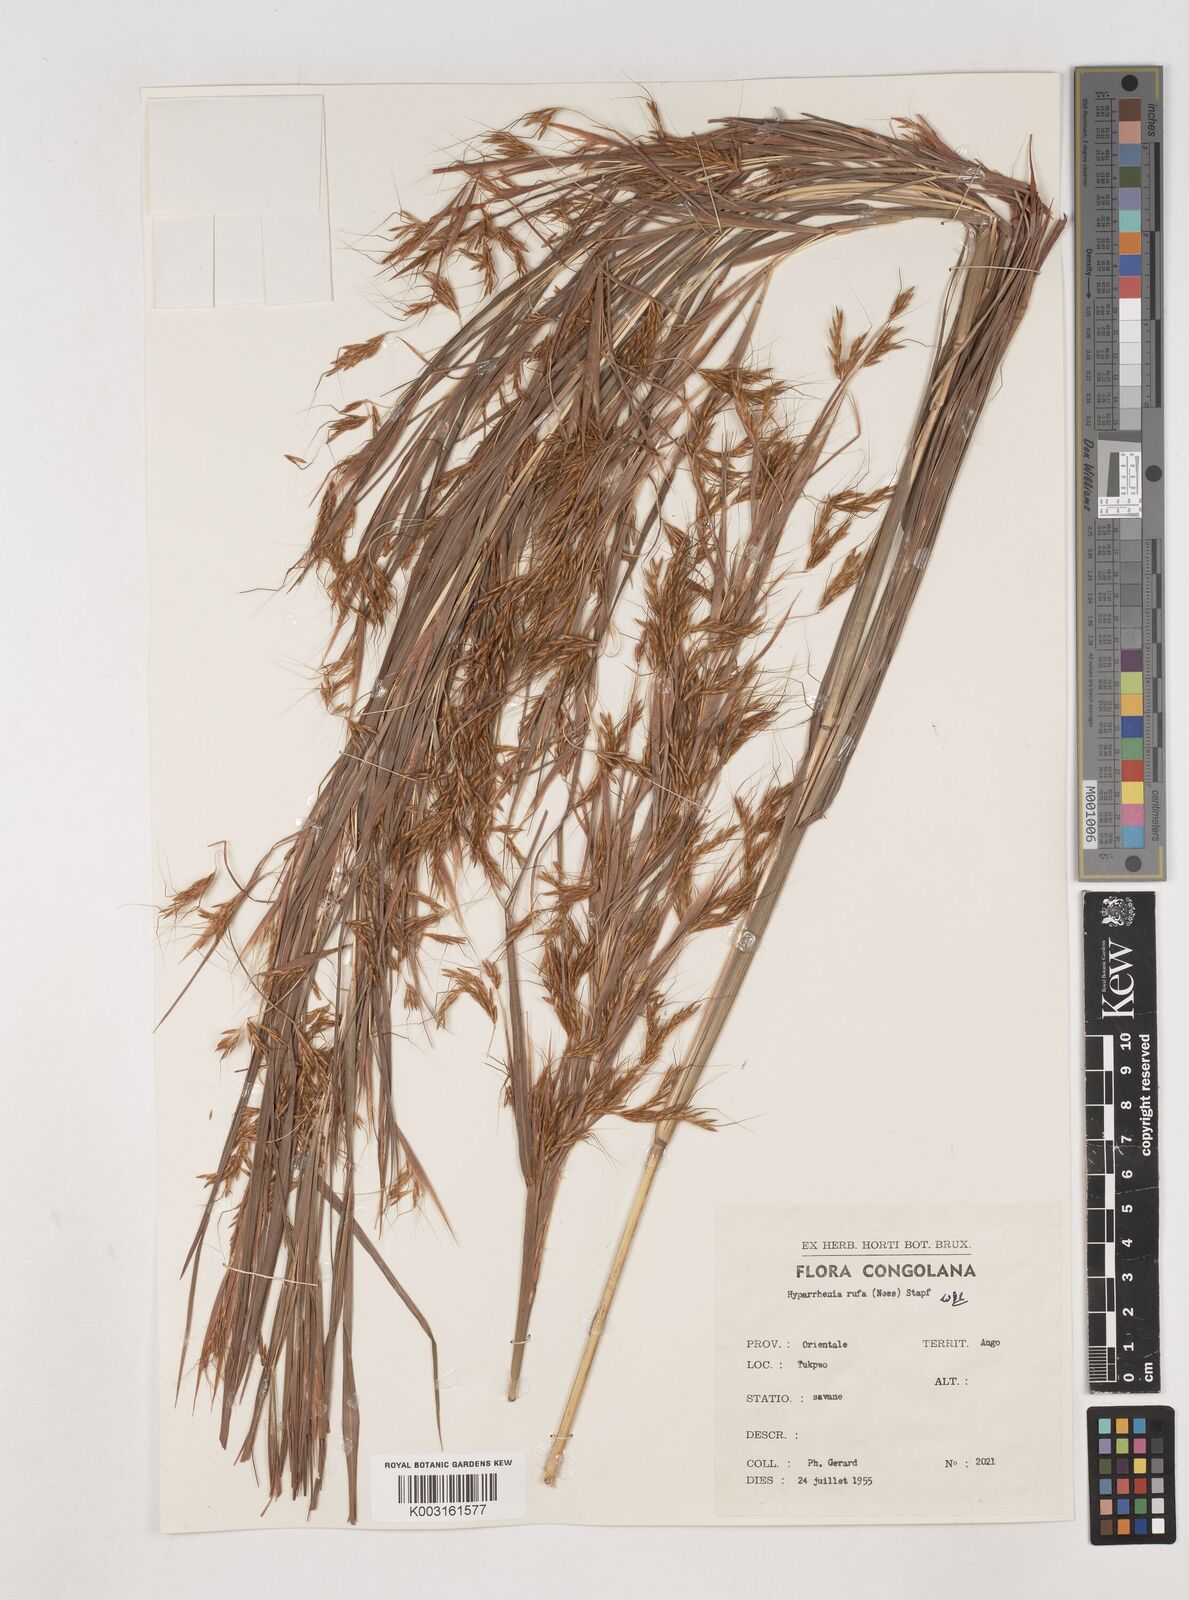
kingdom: Plantae
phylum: Tracheophyta
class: Liliopsida
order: Poales
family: Poaceae
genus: Hyparrhenia
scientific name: Hyparrhenia rufa
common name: Jaraguagrass
